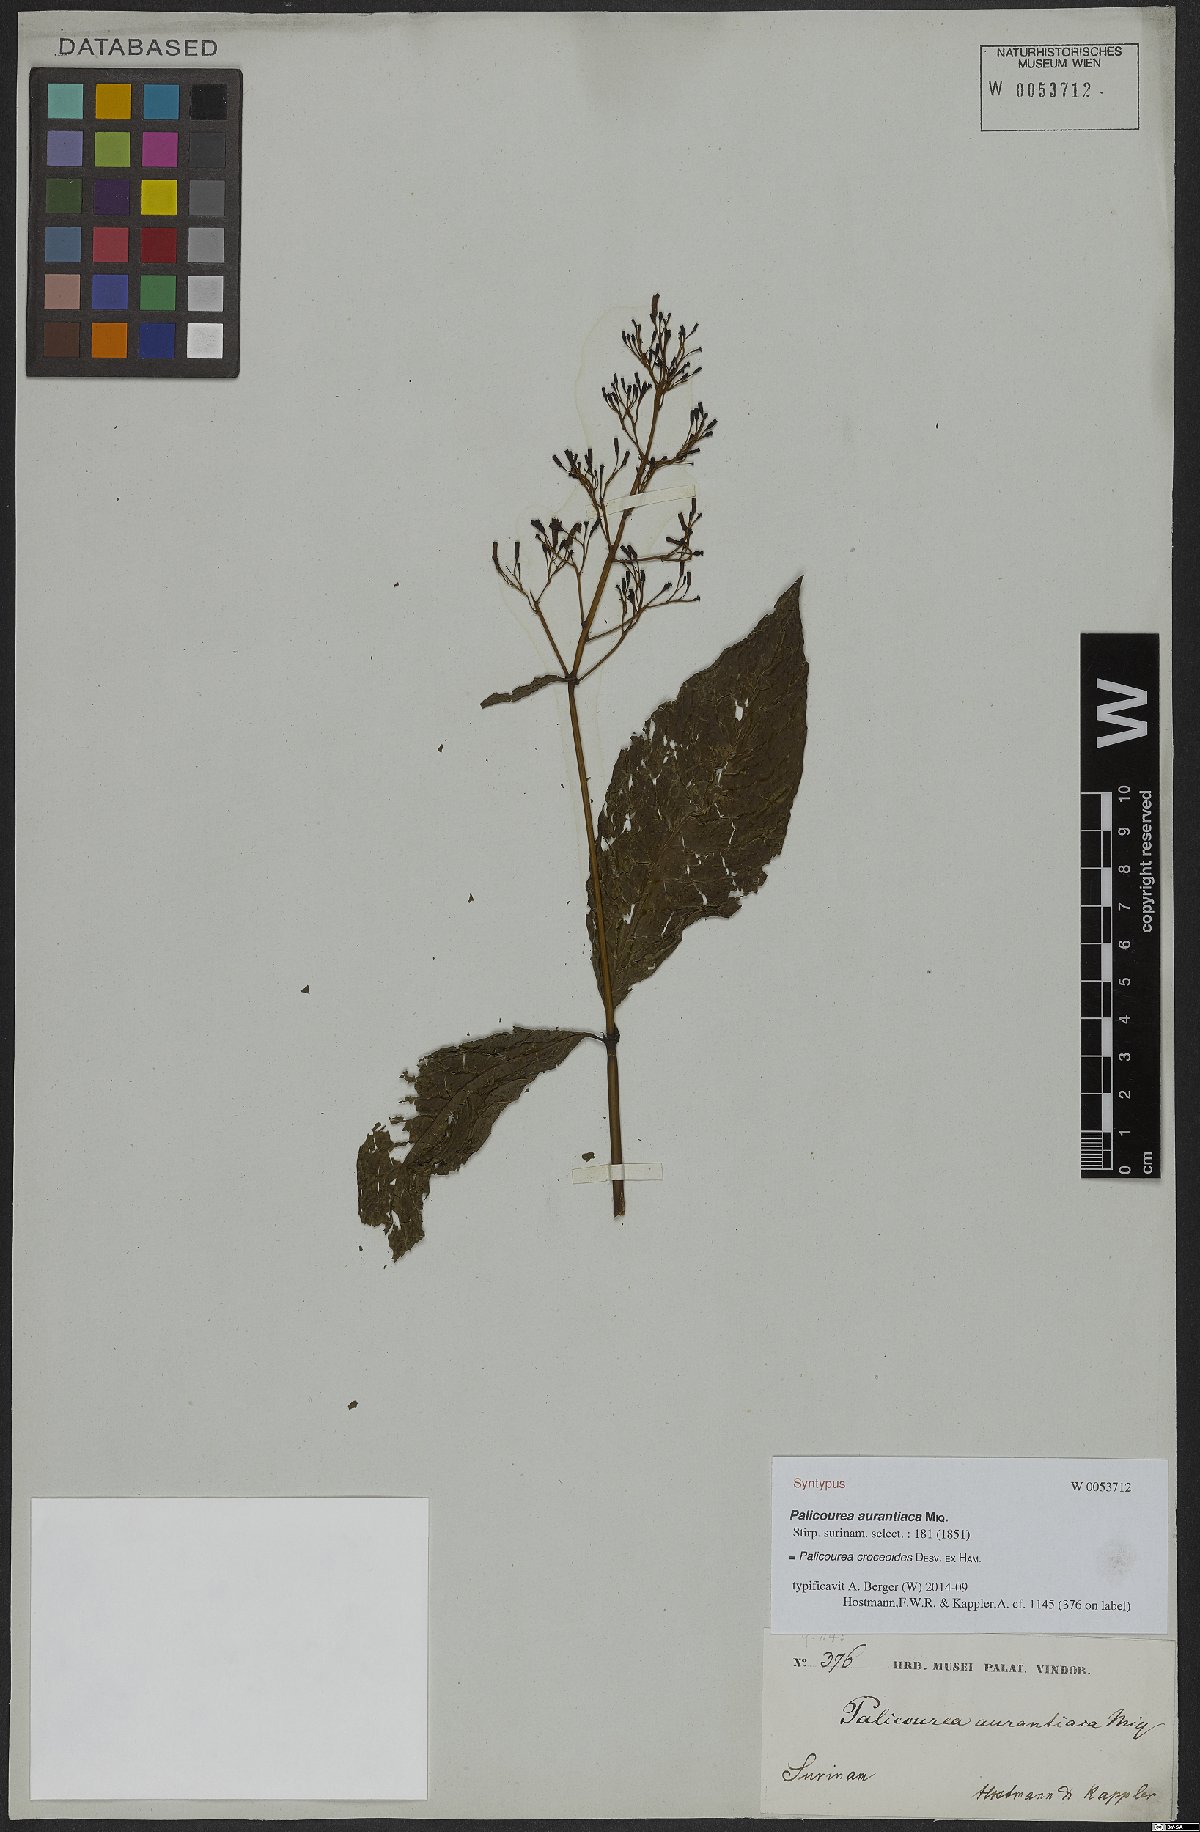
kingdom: Plantae
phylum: Tracheophyta
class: Magnoliopsida
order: Gentianales
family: Rubiaceae
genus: Palicourea
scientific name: Palicourea croceoides
